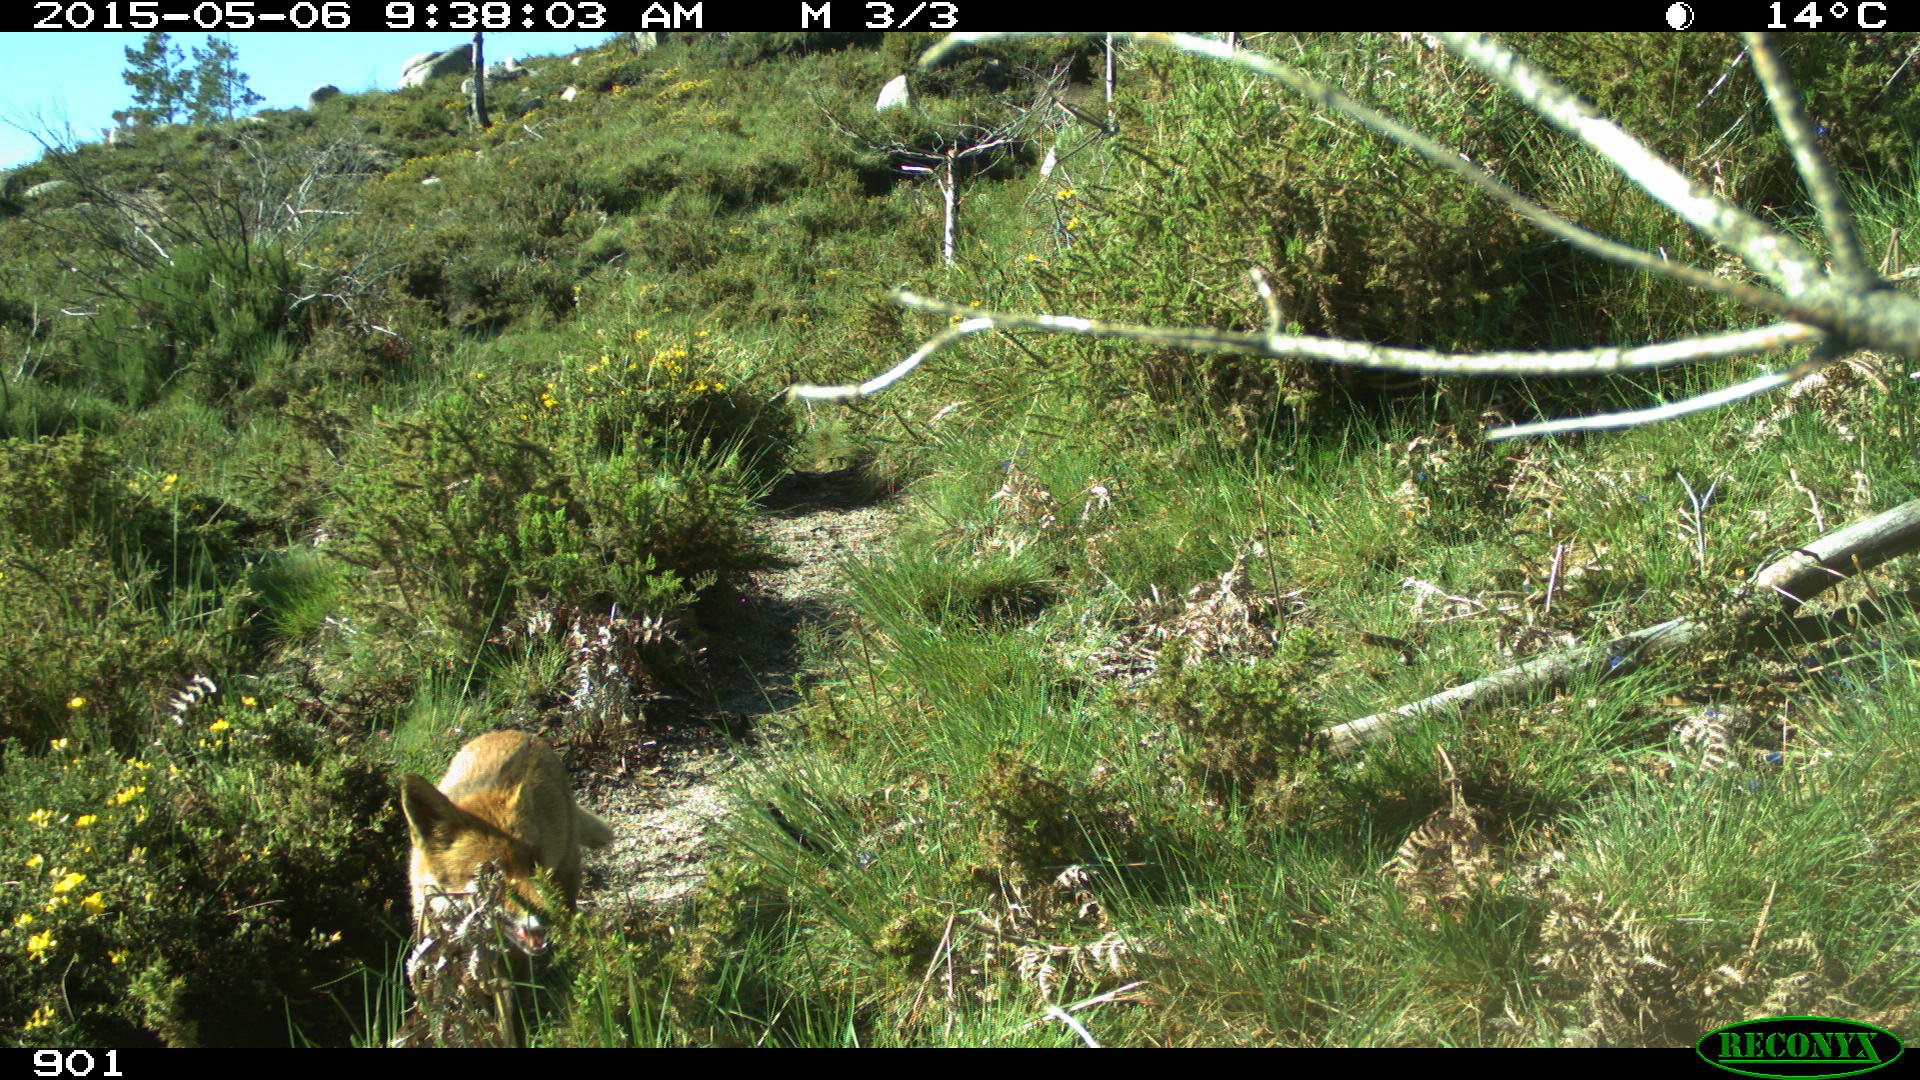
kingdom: Animalia
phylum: Chordata
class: Mammalia
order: Carnivora
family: Canidae
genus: Vulpes
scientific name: Vulpes vulpes
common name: Red fox
